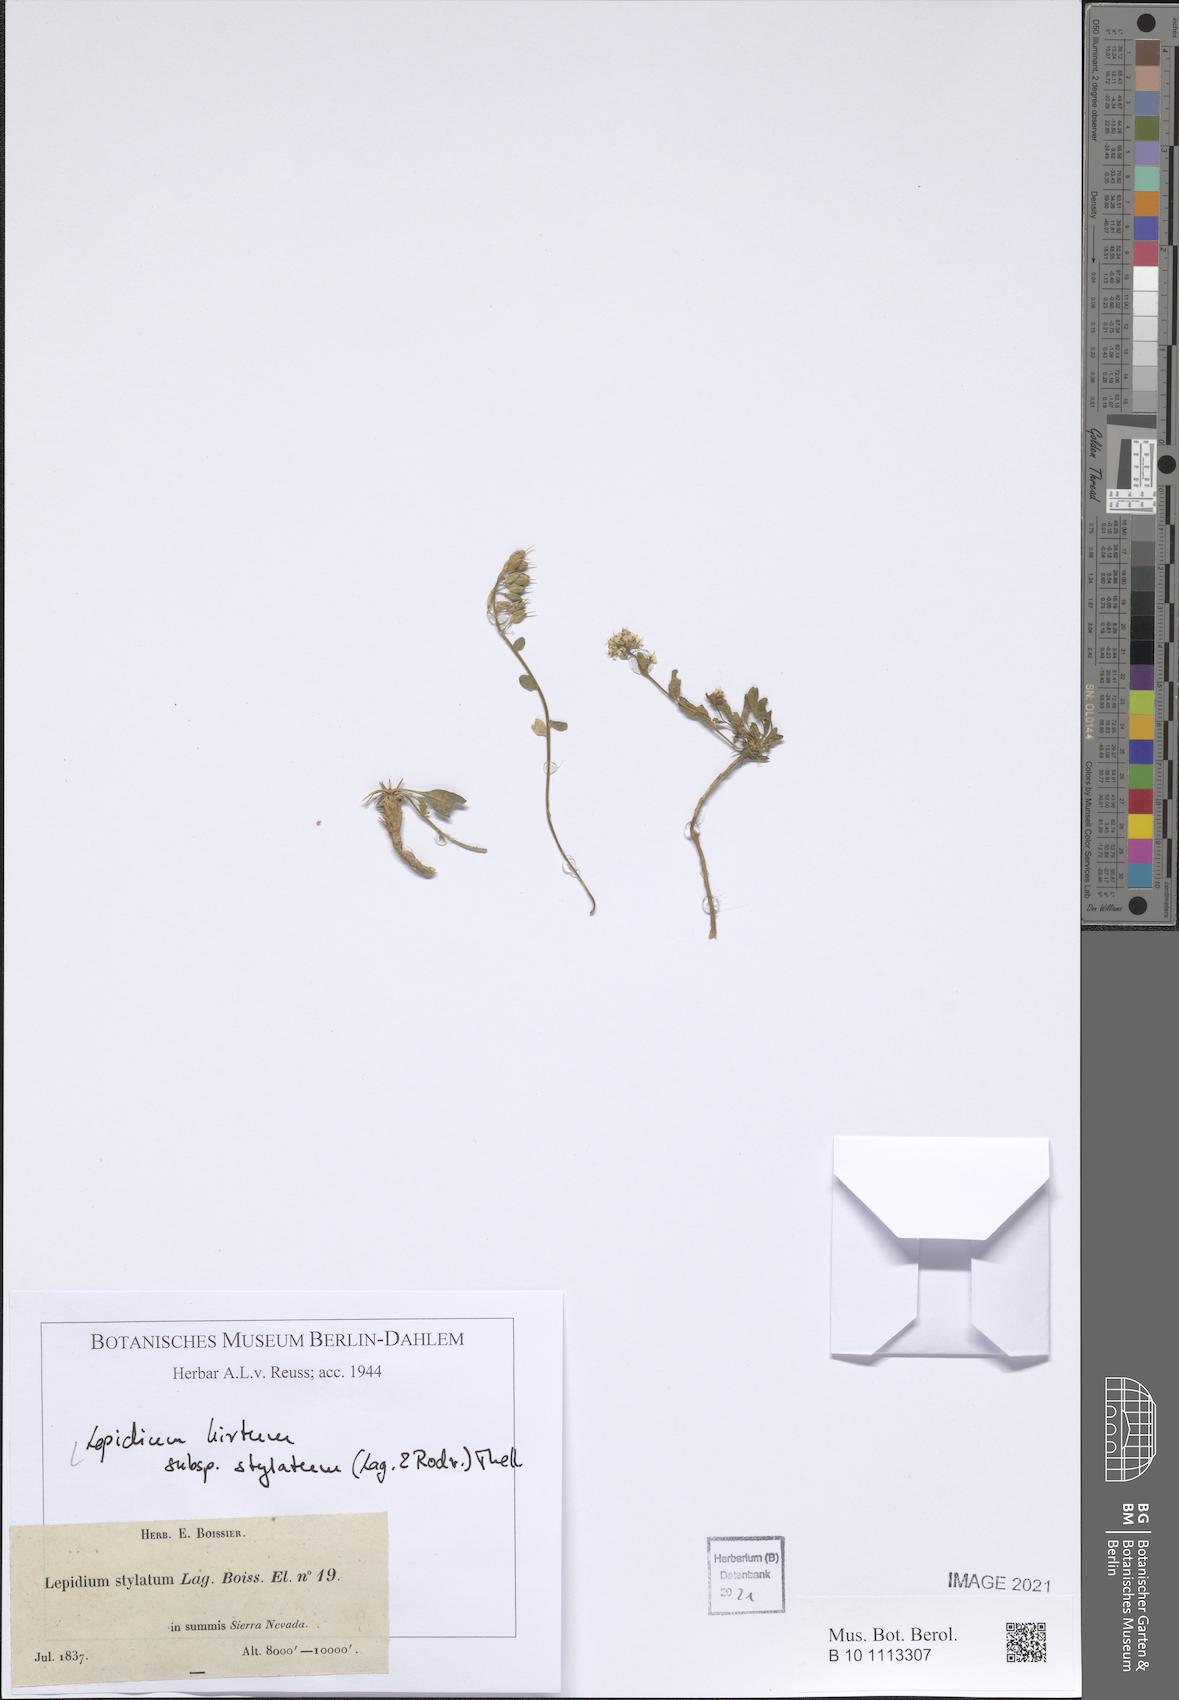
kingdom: Plantae
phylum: Tracheophyta
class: Magnoliopsida
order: Brassicales
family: Brassicaceae
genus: Lepidium
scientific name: Lepidium hirtum
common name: Mediterranean pepperweed
